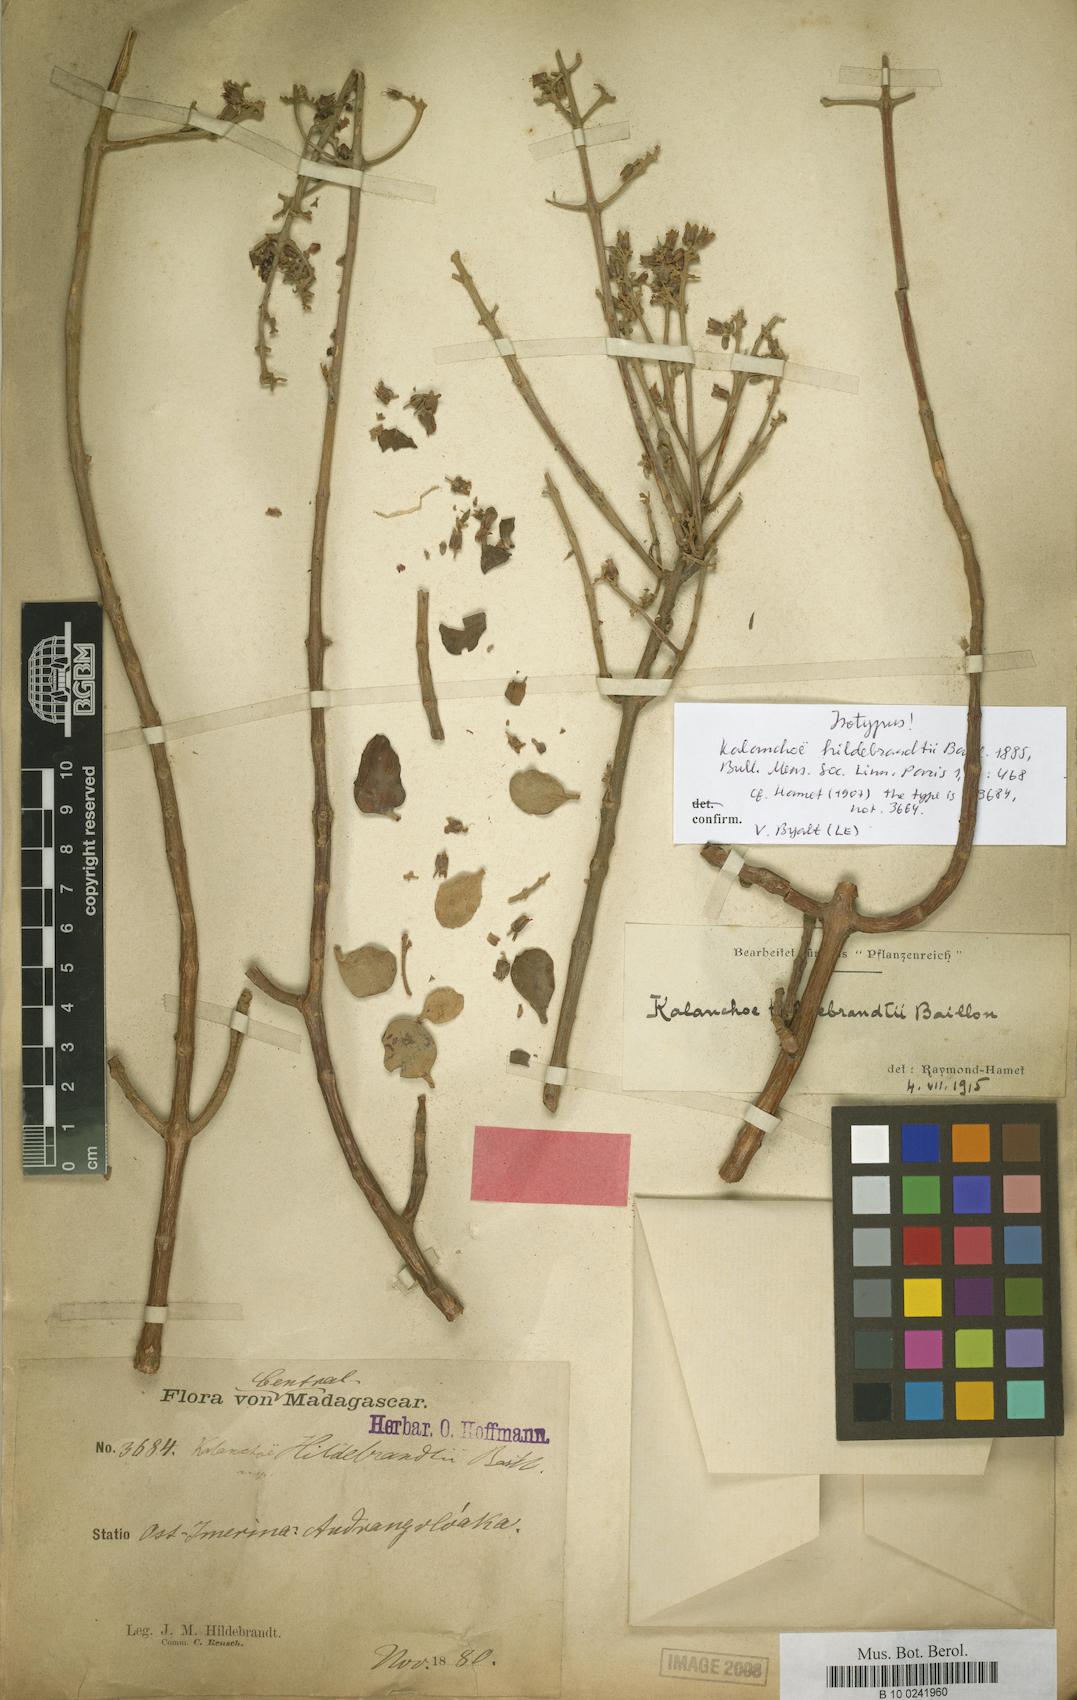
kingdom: Plantae
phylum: Tracheophyta
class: Magnoliopsida
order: Saxifragales
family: Crassulaceae
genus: Kalanchoe
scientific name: Kalanchoe hildebrandtii
